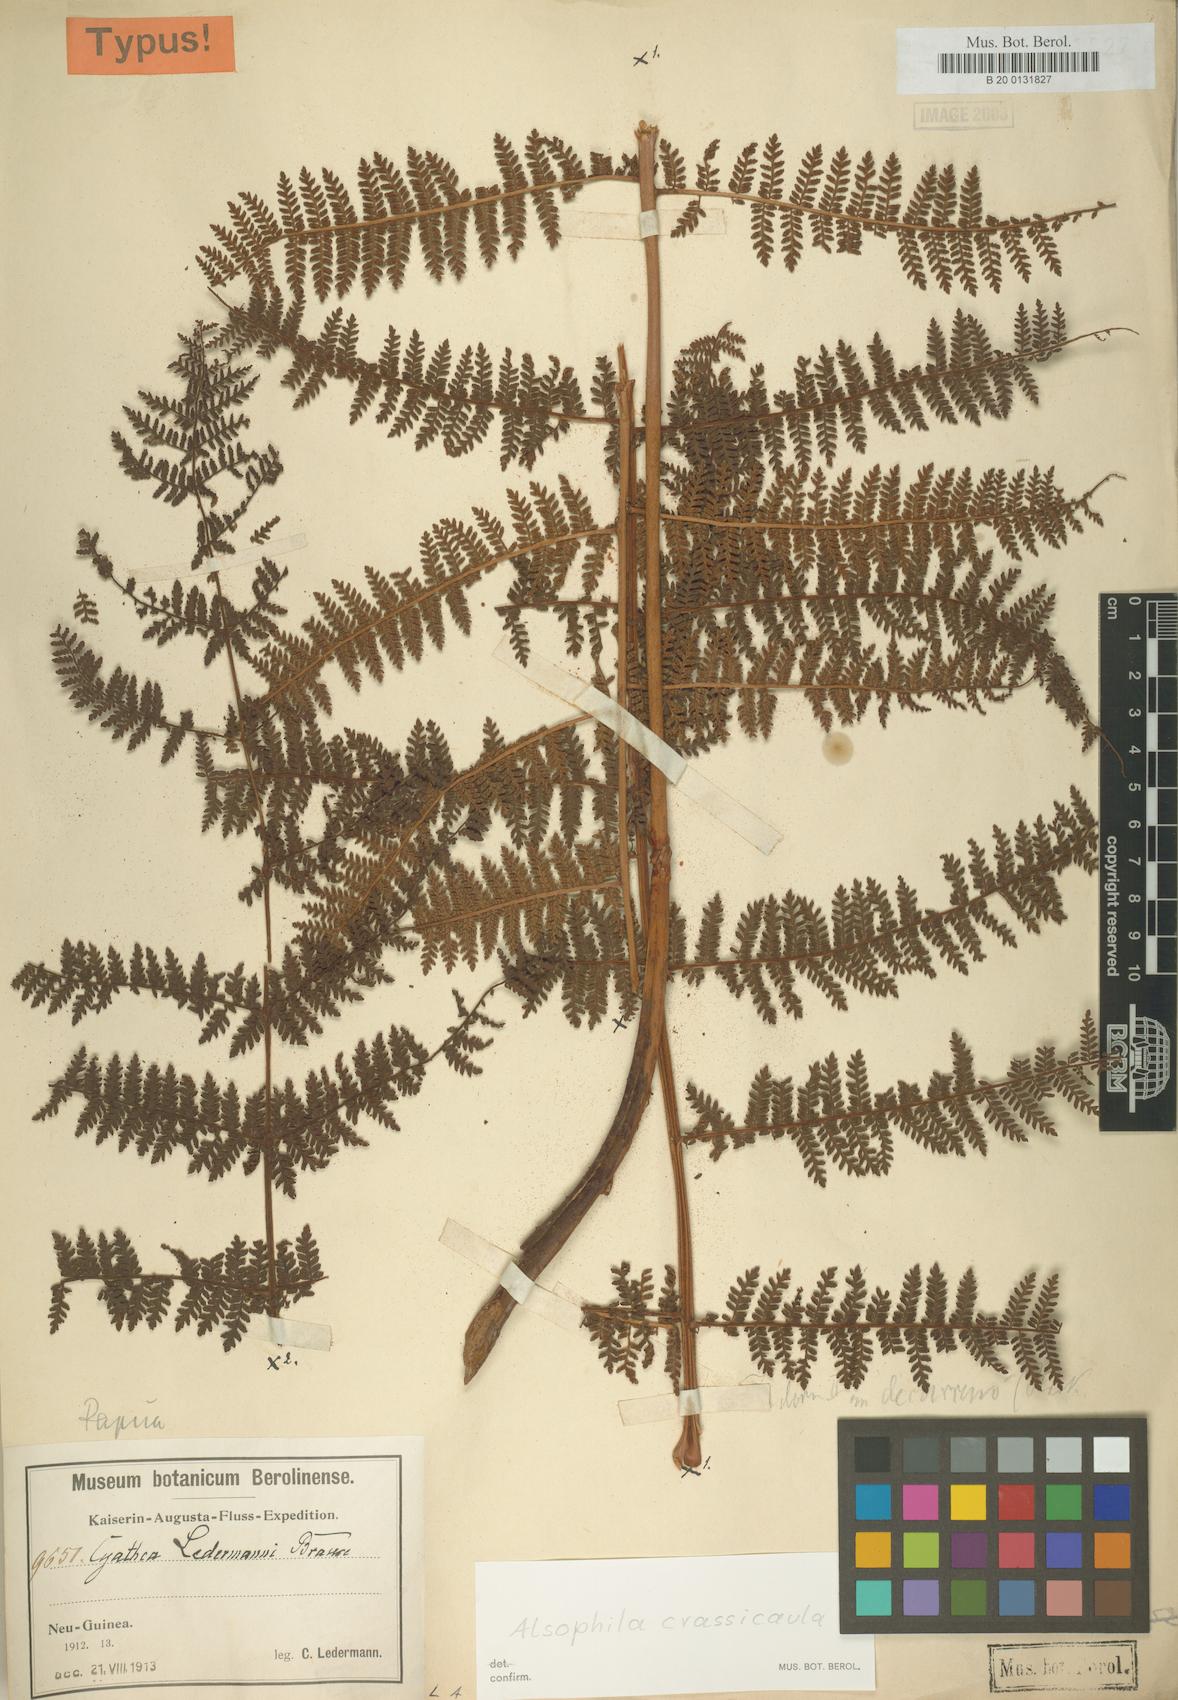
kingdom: Plantae
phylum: Tracheophyta
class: Polypodiopsida
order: Cyatheales
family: Cyatheaceae
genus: Sphaeropteris
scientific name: Sphaeropteris ledermannii
